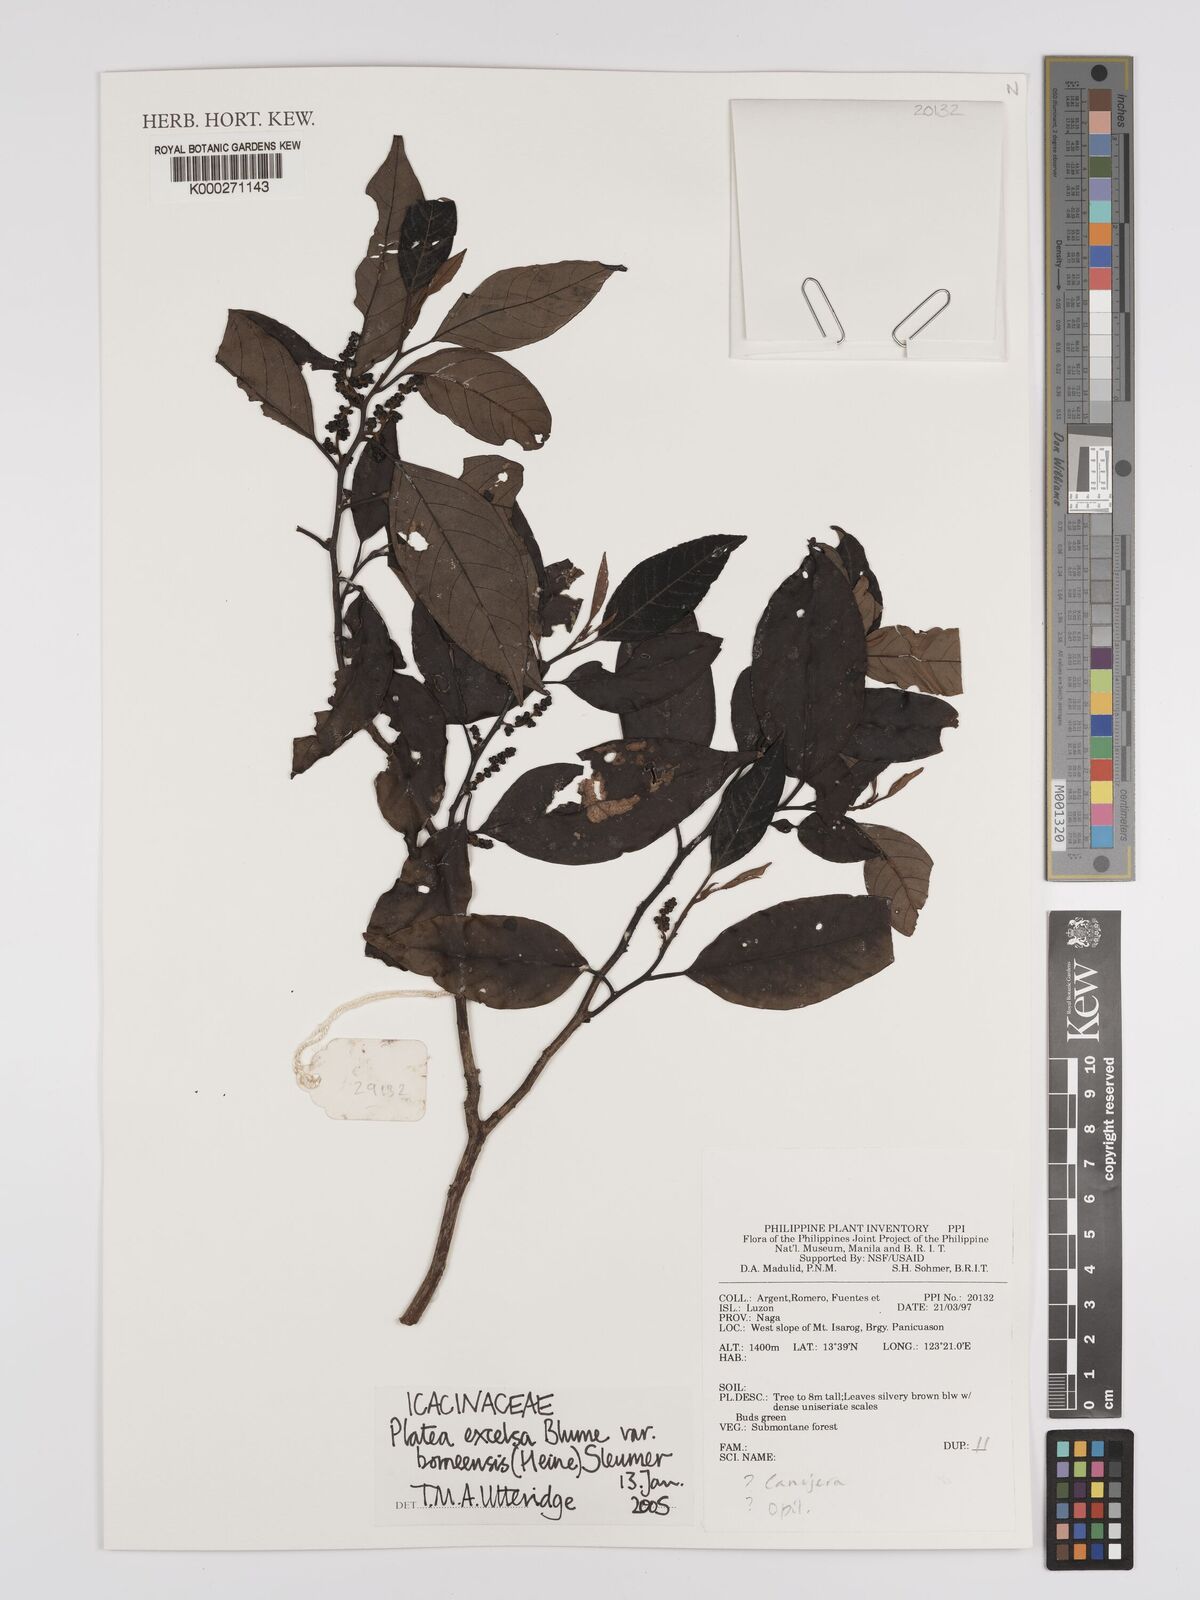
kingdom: Plantae
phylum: Tracheophyta
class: Magnoliopsida
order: Metteniusales
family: Metteniusaceae
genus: Platea
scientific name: Platea excelsa
